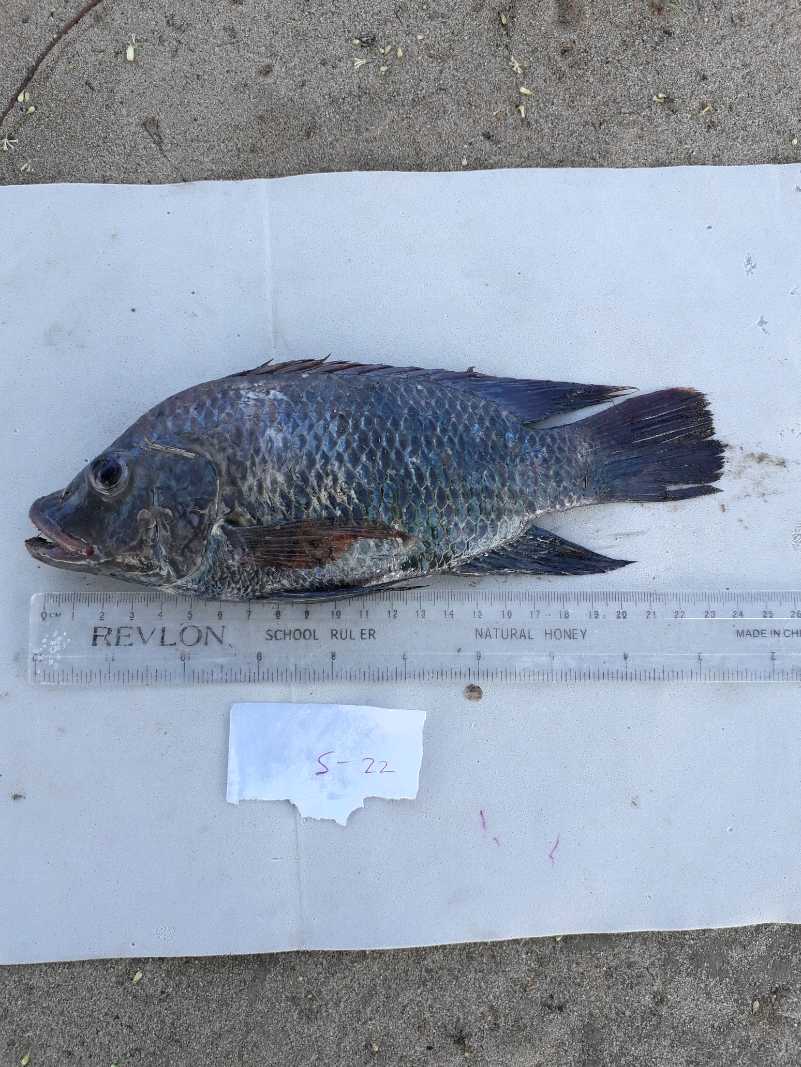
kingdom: Animalia
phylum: Chordata
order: Perciformes
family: Cichlidae
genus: Oreochromis
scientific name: Oreochromis urolepis
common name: Wami tilapia
